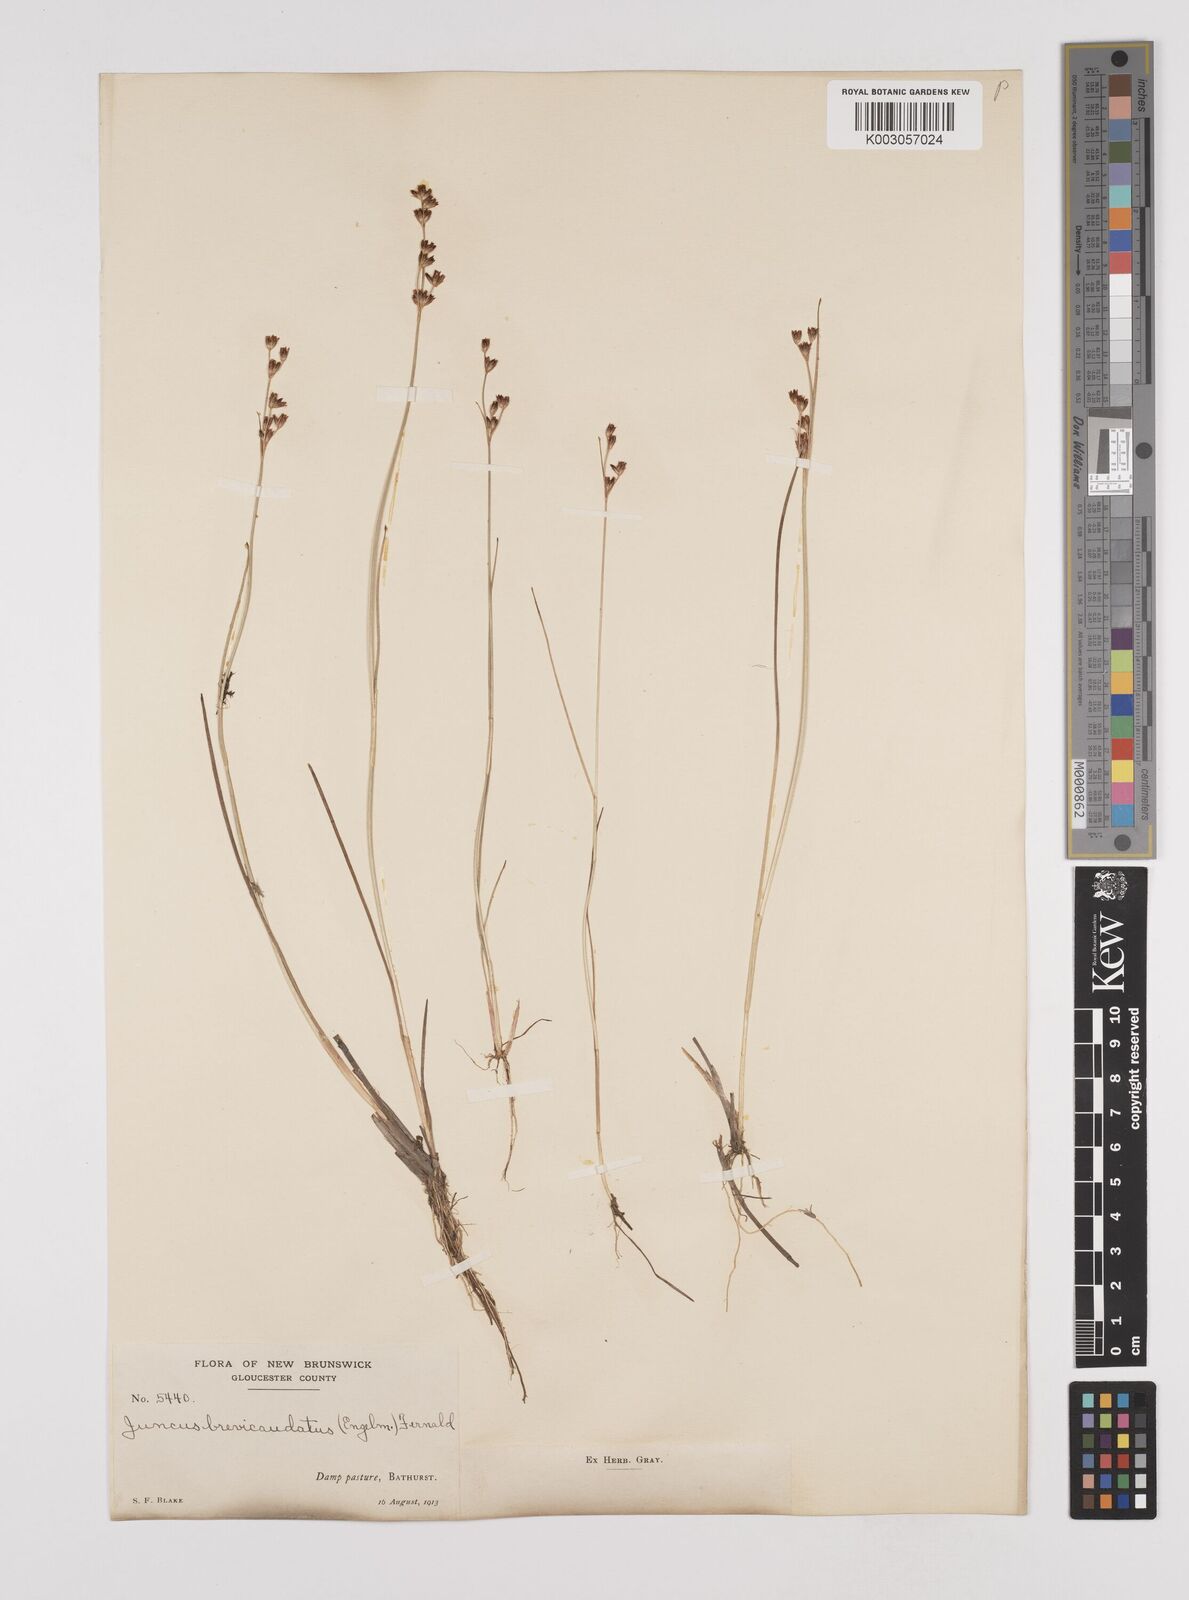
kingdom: Plantae
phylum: Tracheophyta
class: Liliopsida
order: Poales
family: Juncaceae
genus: Juncus
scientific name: Juncus canadensis
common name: Canada rush
